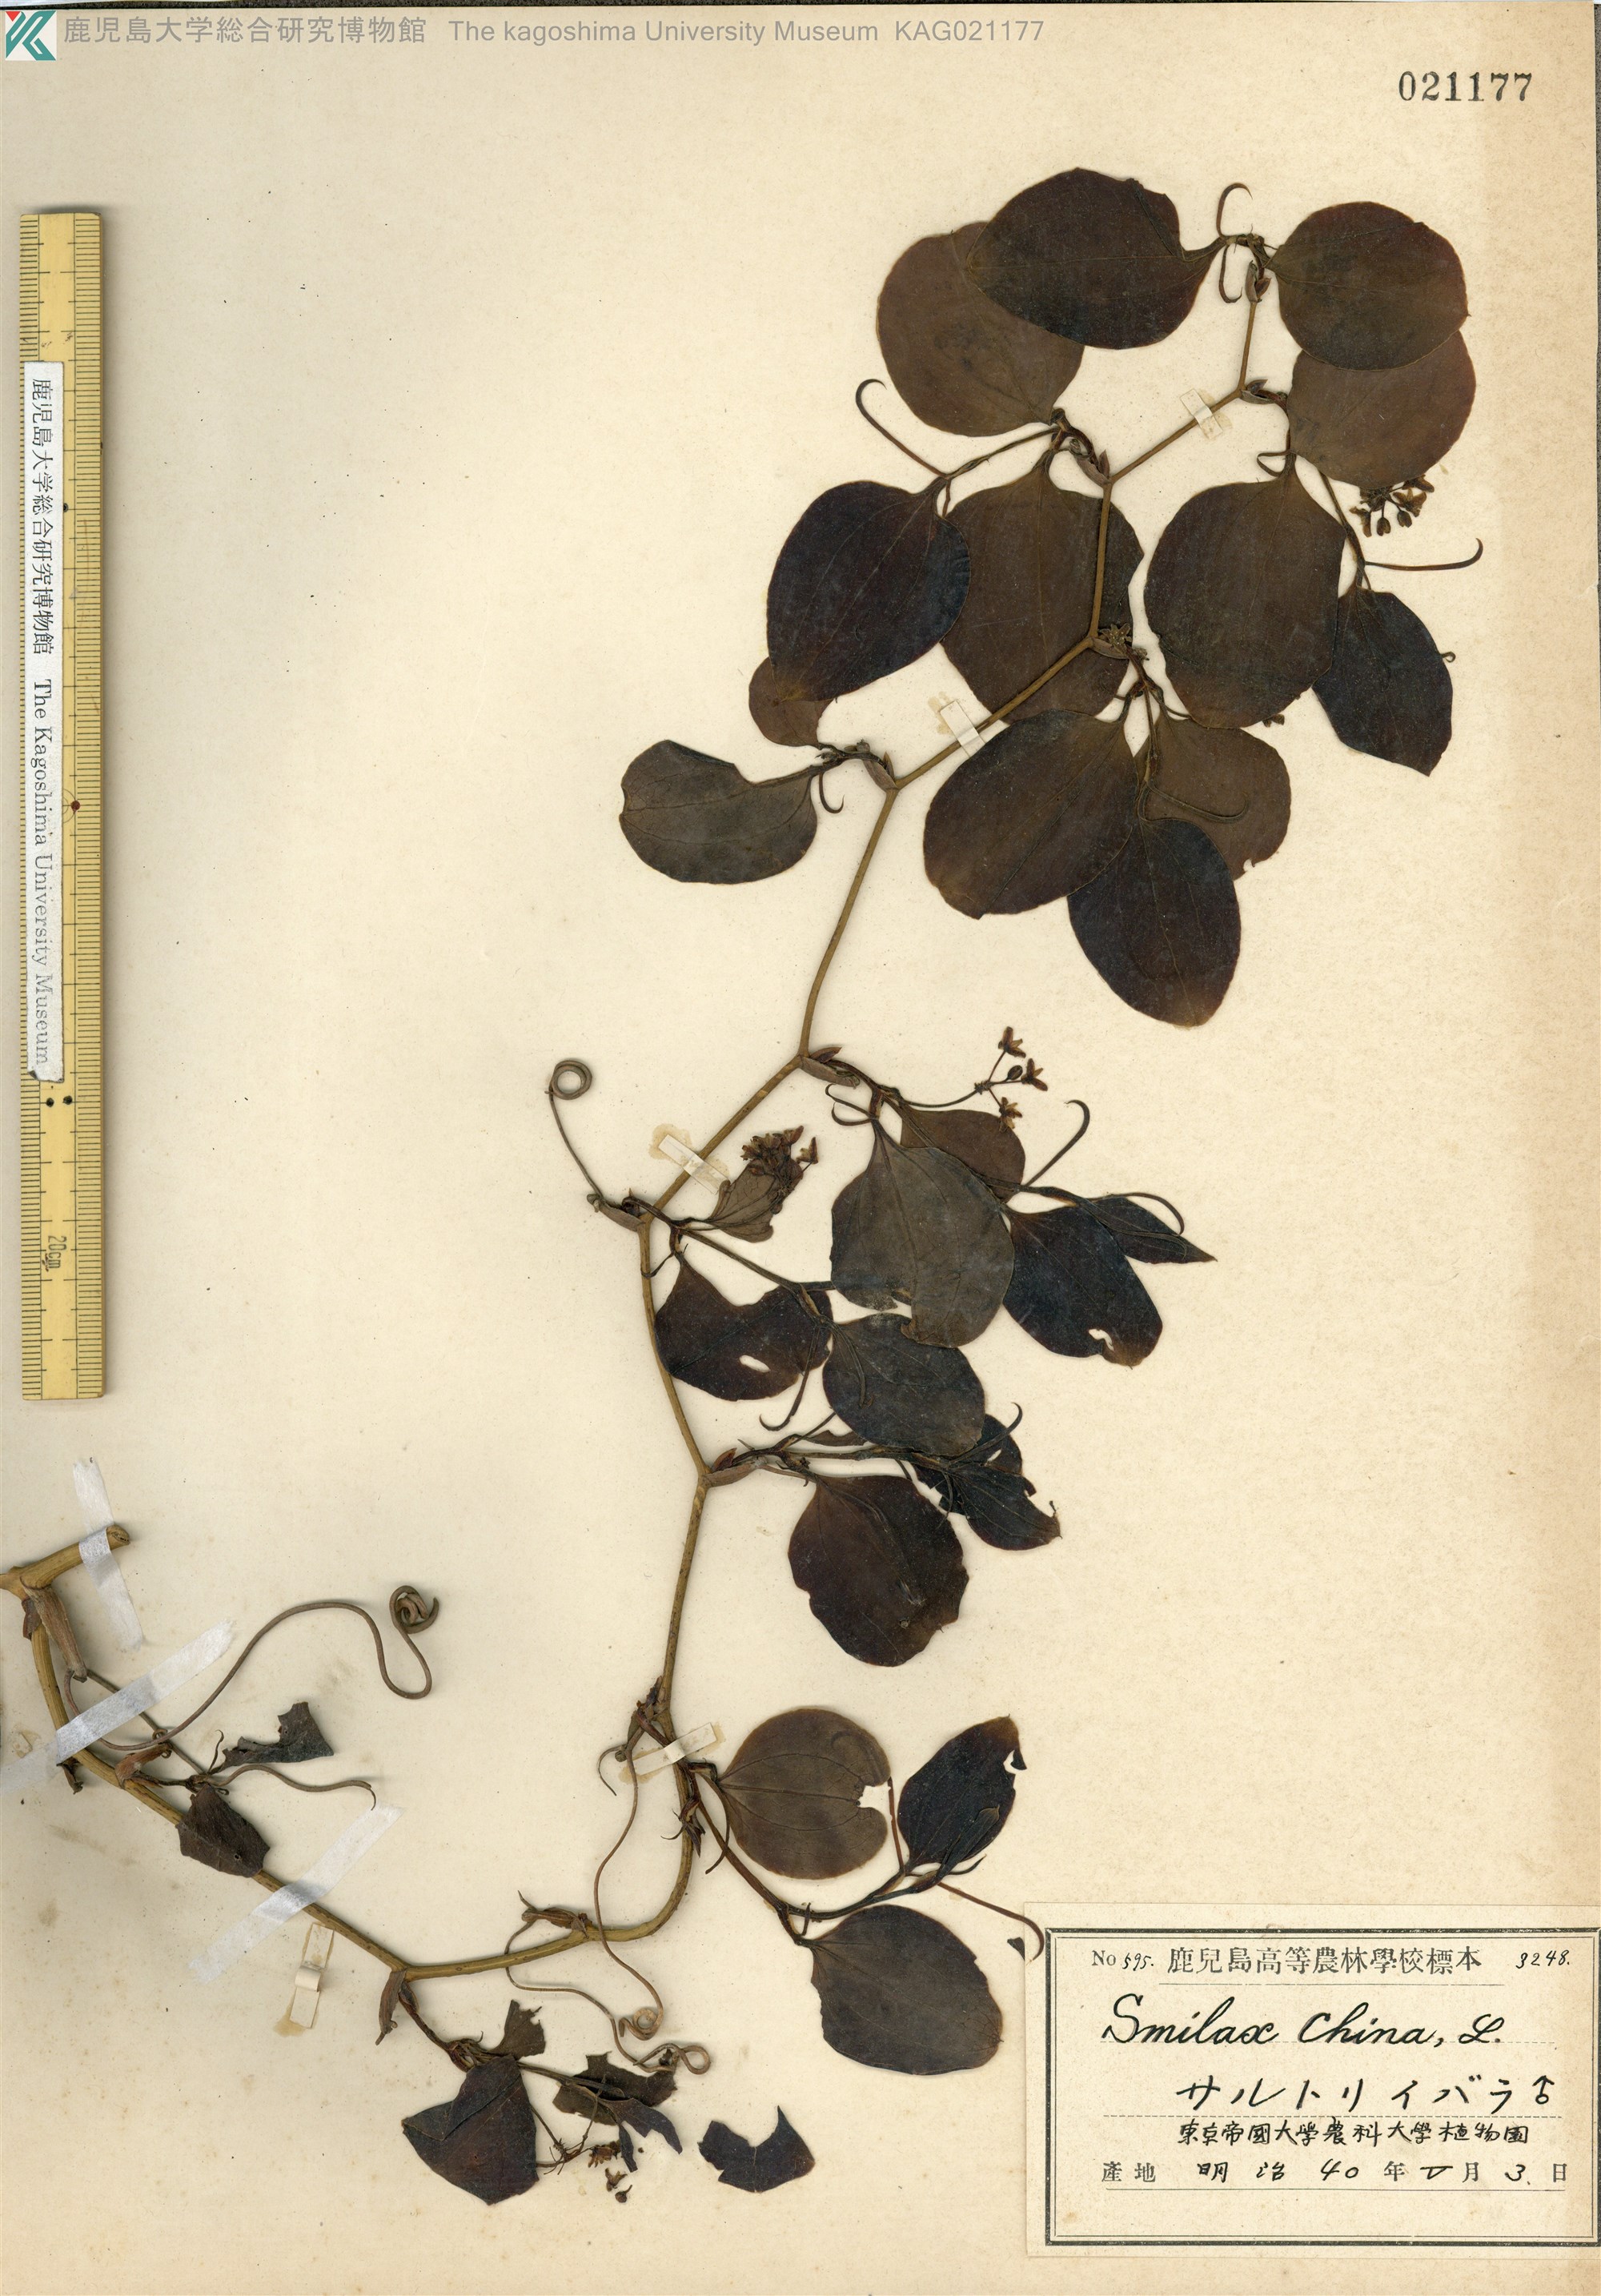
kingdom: Plantae
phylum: Tracheophyta
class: Liliopsida
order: Liliales
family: Smilacaceae
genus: Smilax
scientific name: Smilax china
